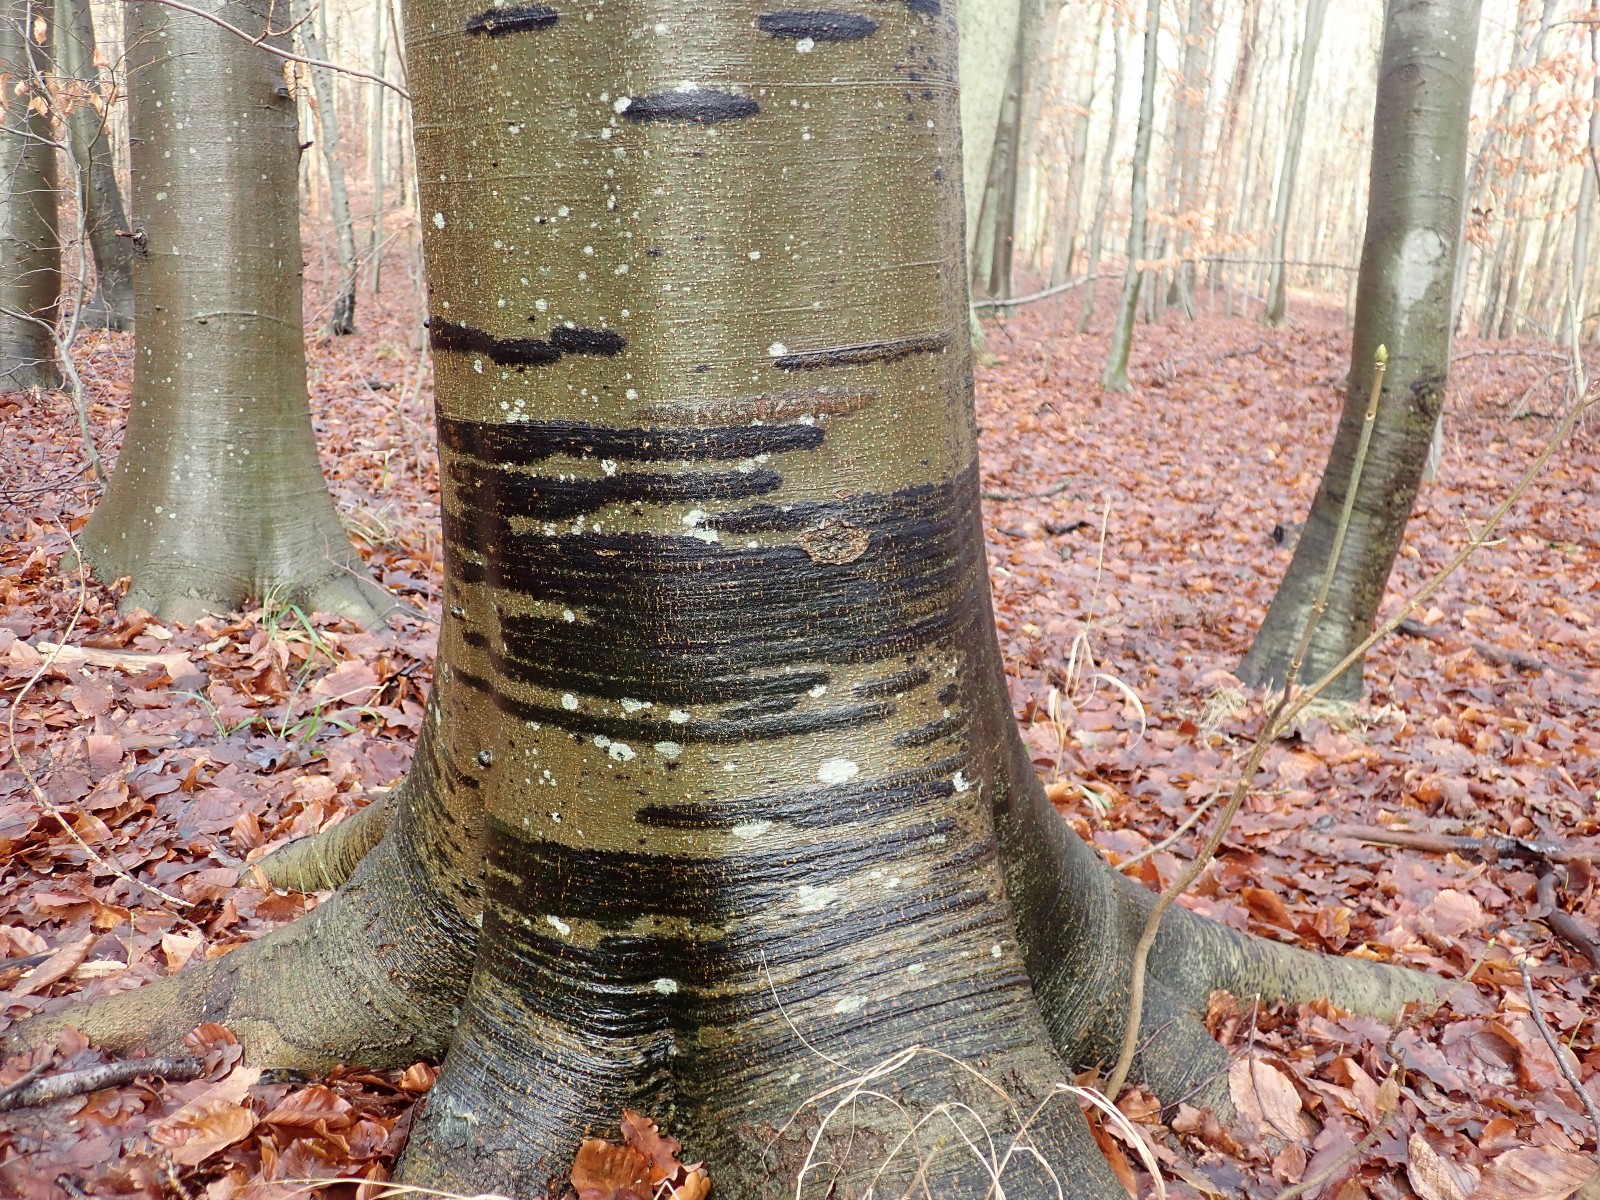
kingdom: Fungi
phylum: Ascomycota
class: Leotiomycetes
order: Rhytismatales
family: Ascodichaenaceae
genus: Ascodichaena
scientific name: Ascodichaena rugosa
